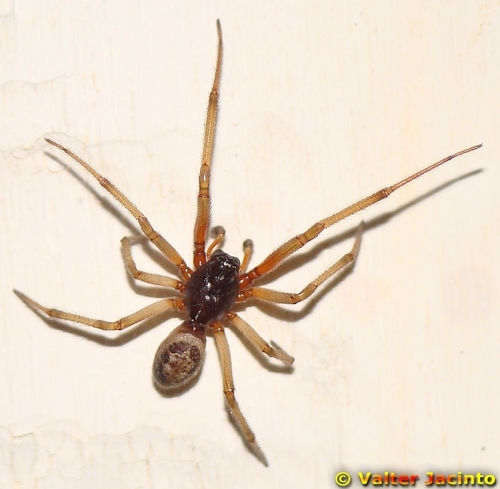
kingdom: Animalia
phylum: Arthropoda
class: Arachnida
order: Araneae
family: Theridiidae
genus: Steatoda
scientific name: Steatoda nobilis
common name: Cobweb weaver
